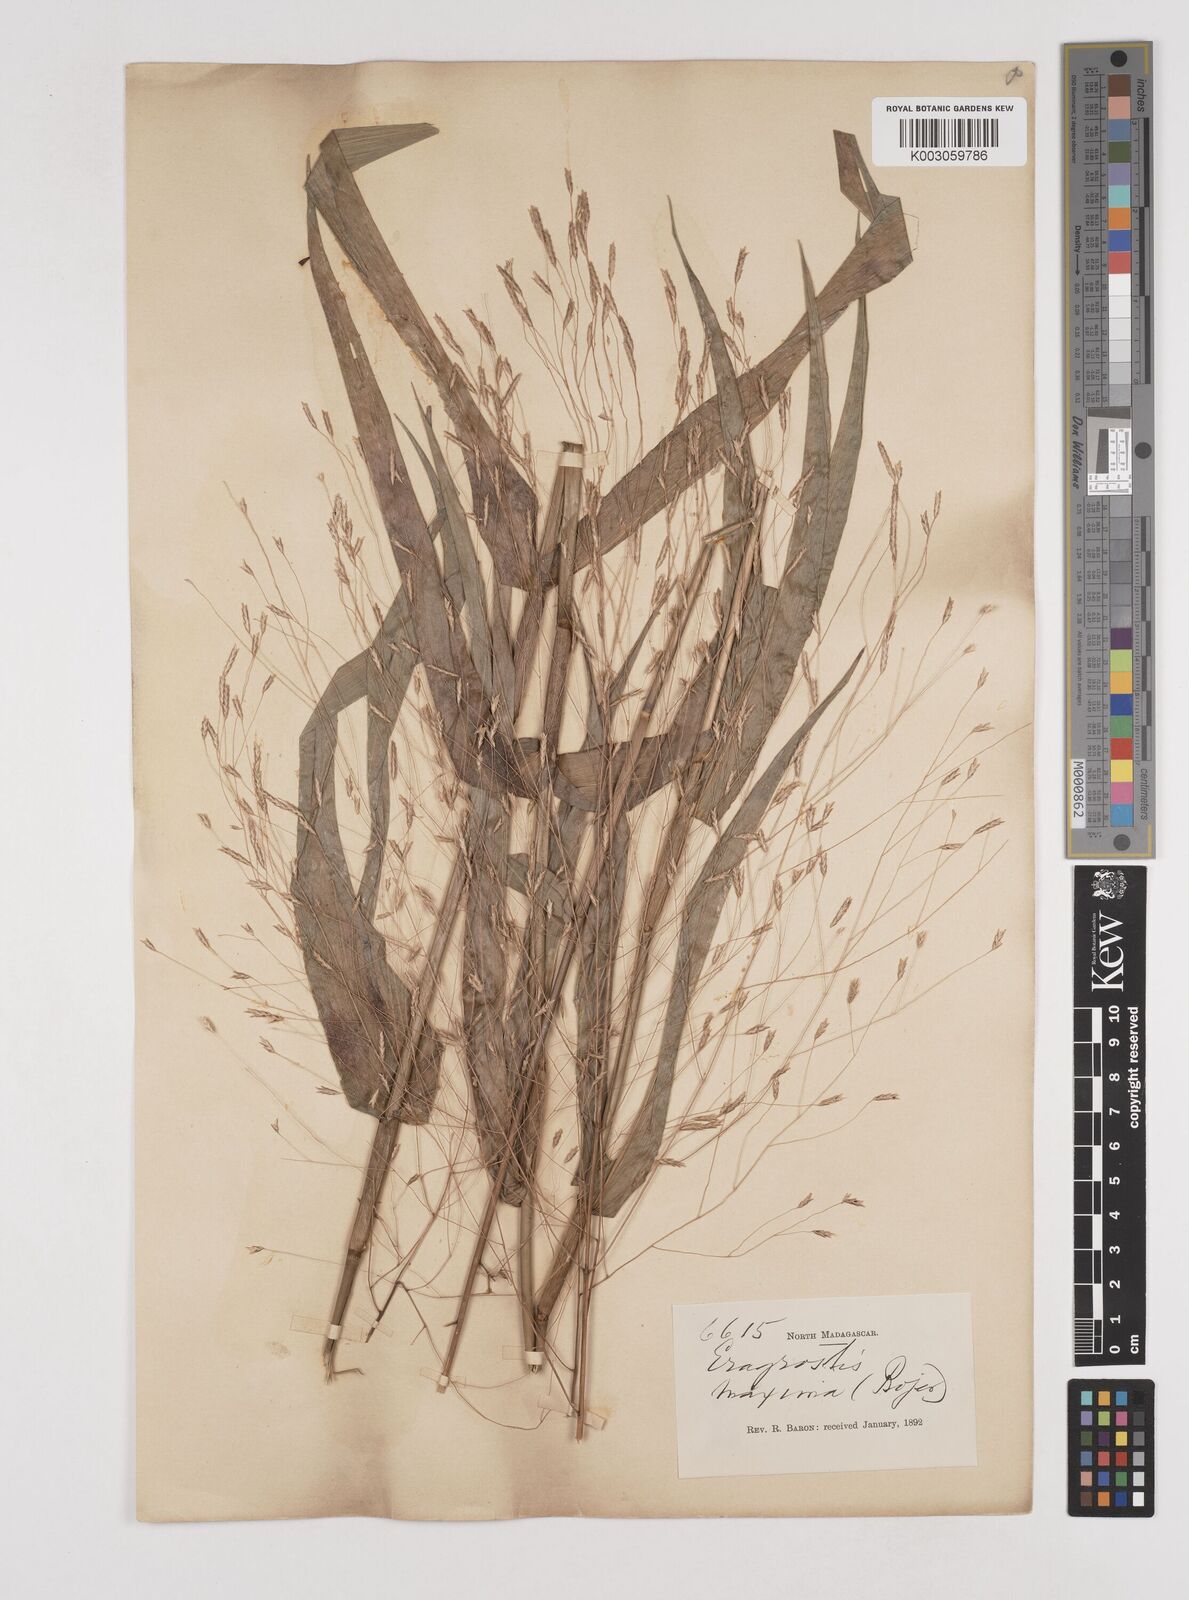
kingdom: Plantae
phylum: Tracheophyta
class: Liliopsida
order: Poales
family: Poaceae
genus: Megastachya
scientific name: Megastachya madagascariensis
